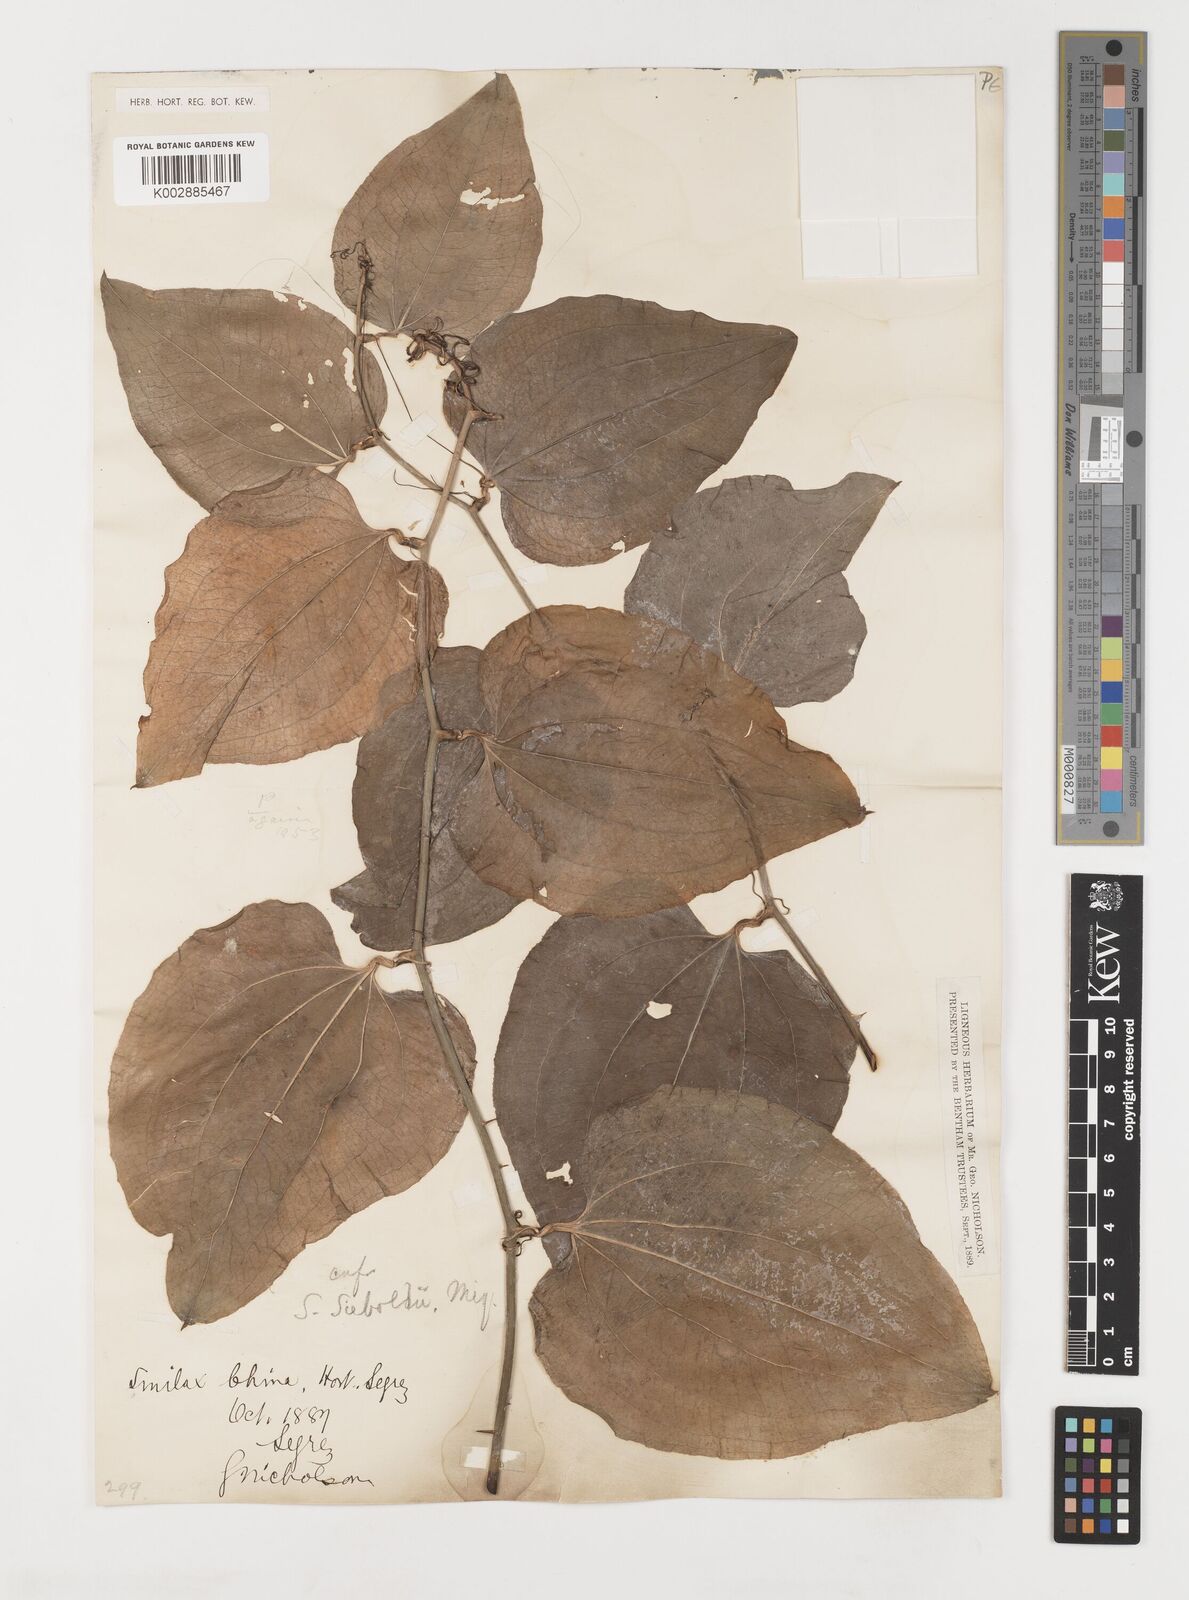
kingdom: Plantae
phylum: Tracheophyta
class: Liliopsida
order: Liliales
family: Smilacaceae
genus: Smilax
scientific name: Smilax sieboldii
